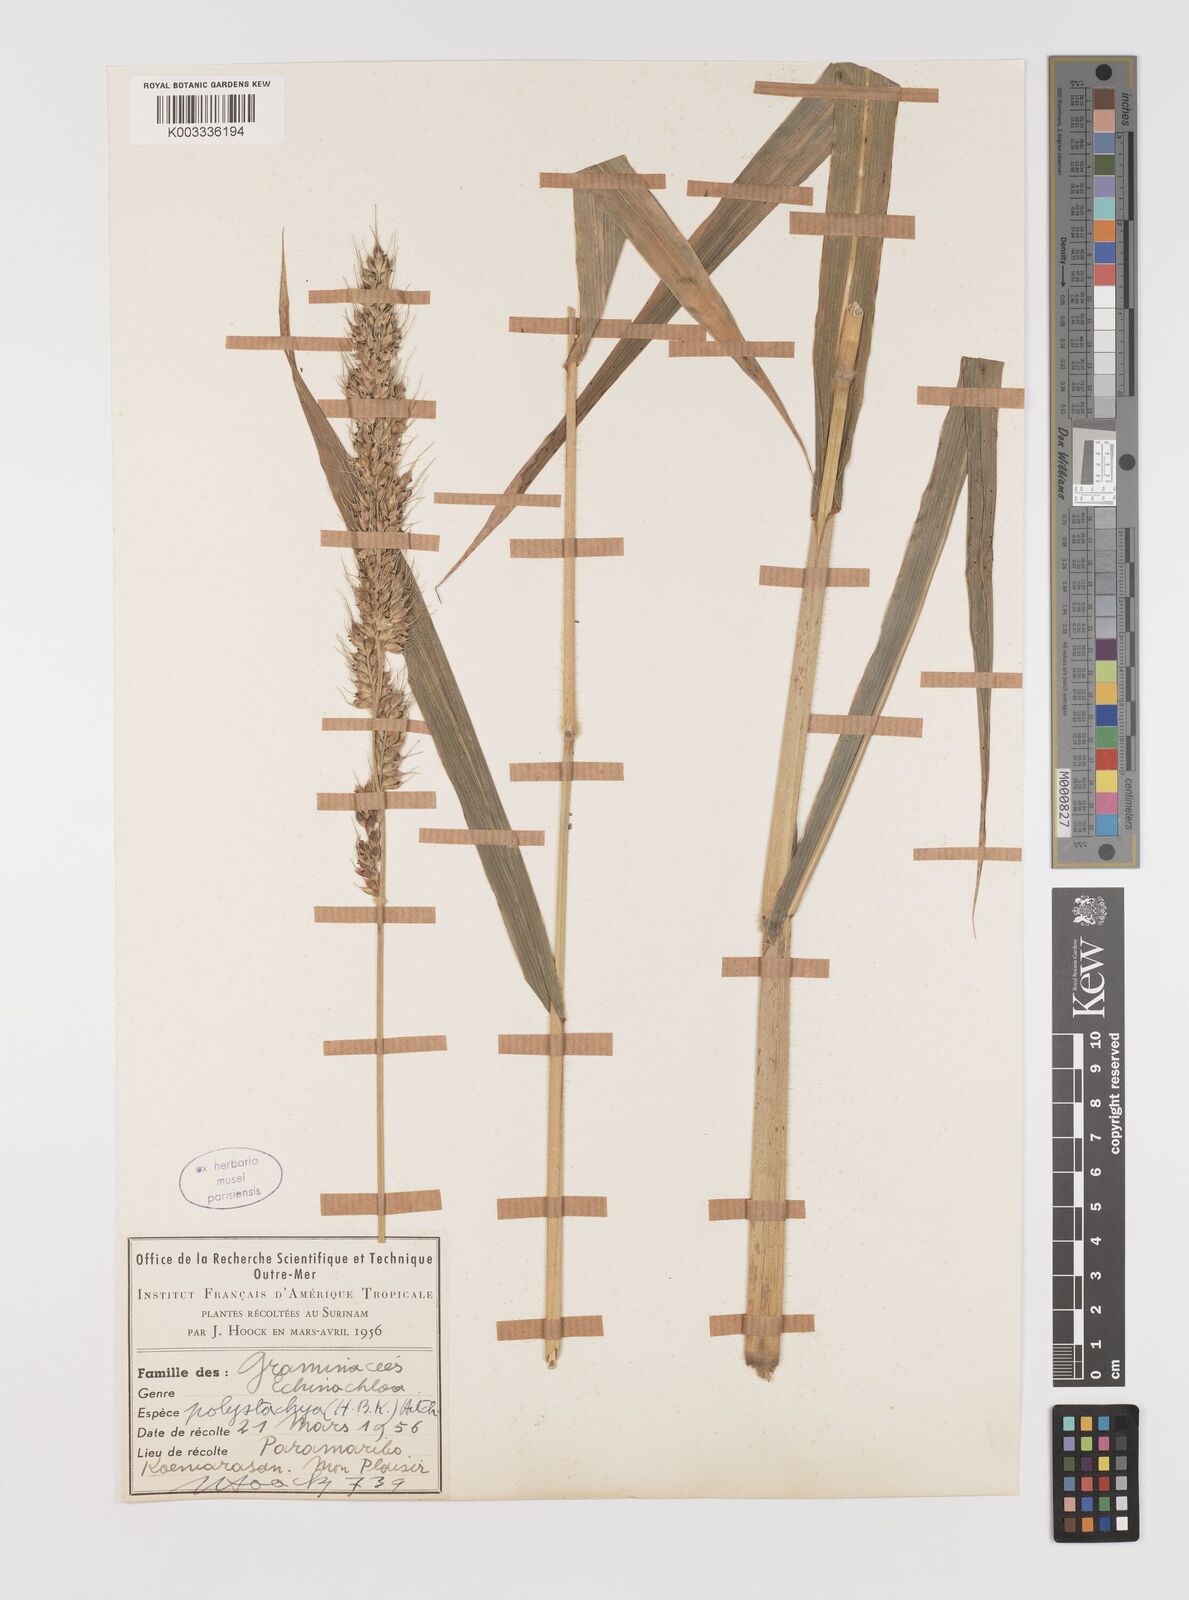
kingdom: Plantae
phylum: Tracheophyta
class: Liliopsida
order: Poales
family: Poaceae
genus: Echinochloa
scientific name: Echinochloa polystachya
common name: Creeping river grass
